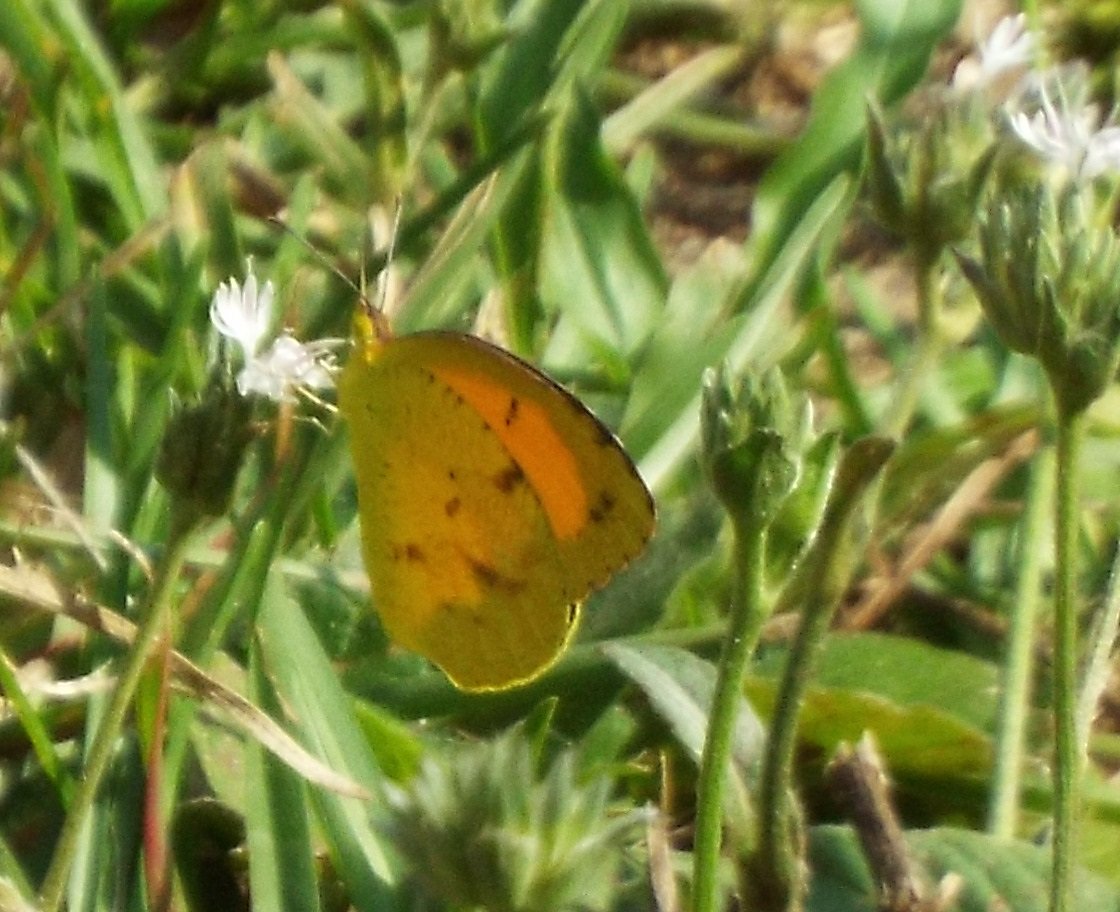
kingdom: Animalia
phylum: Arthropoda
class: Insecta
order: Lepidoptera
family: Pieridae
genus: Abaeis
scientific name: Abaeis nicippe
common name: Sleepy Orange
